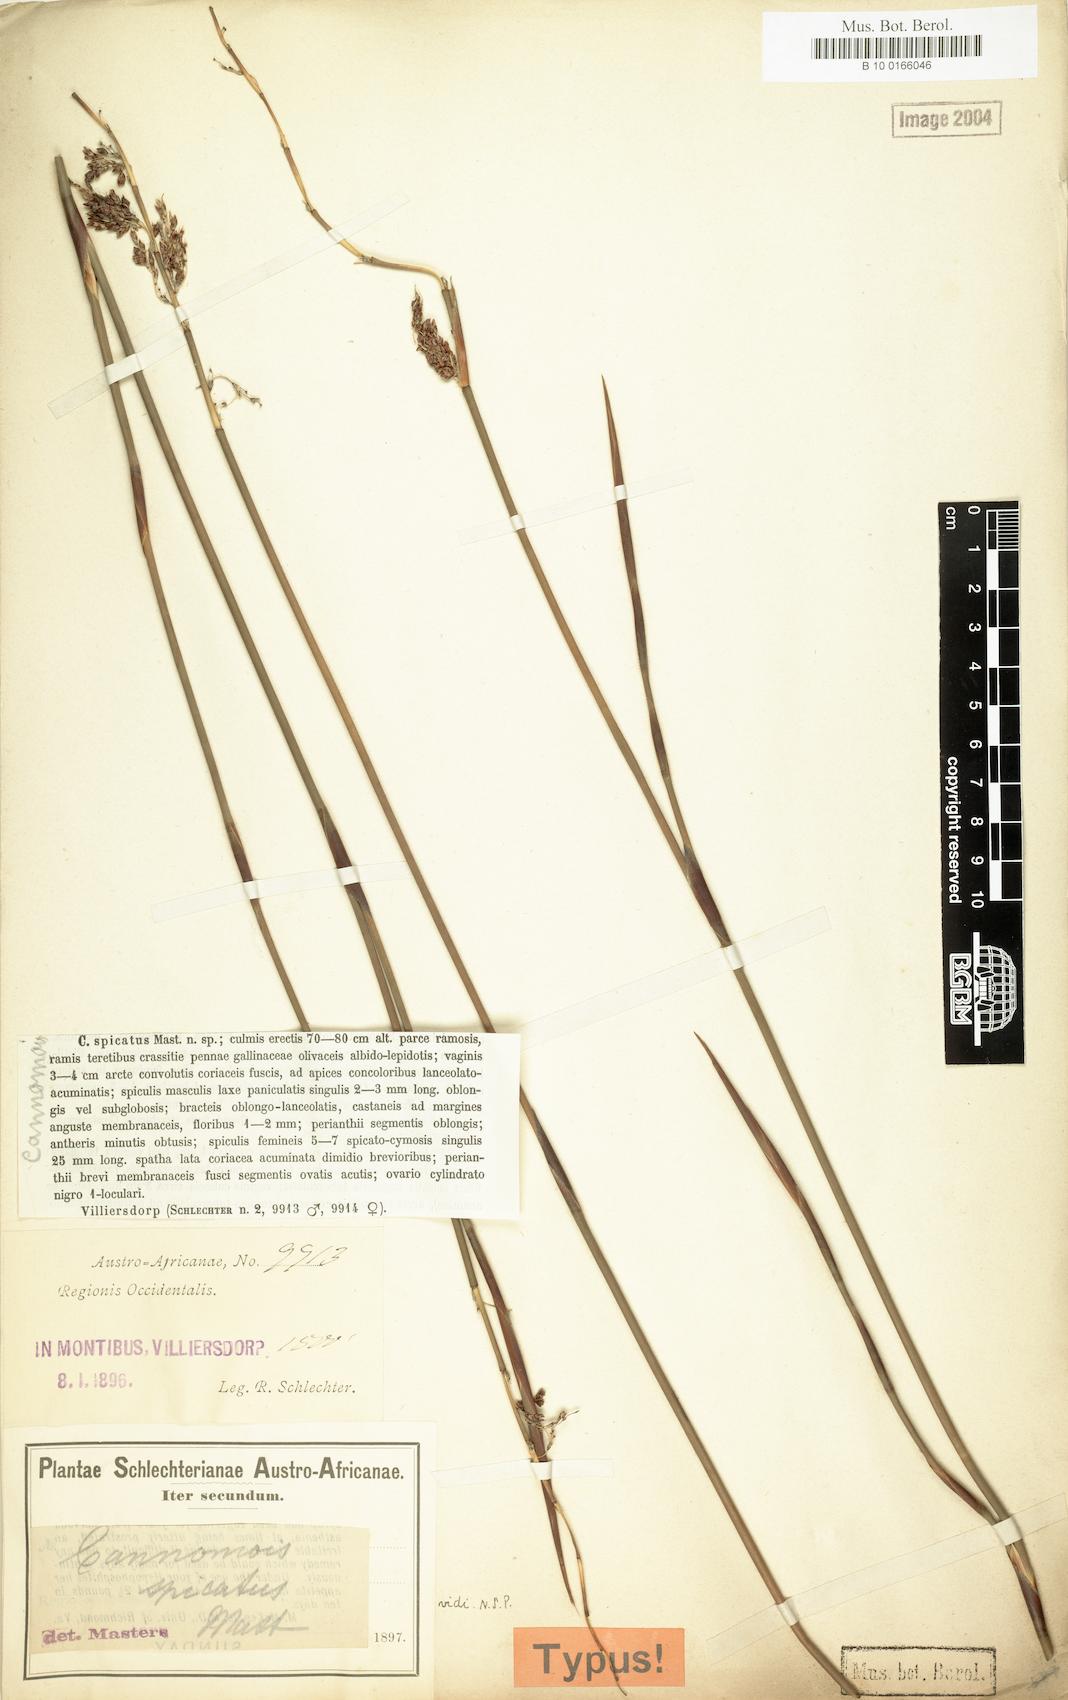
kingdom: Plantae
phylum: Tracheophyta
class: Liliopsida
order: Poales
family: Restionaceae
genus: Cannomois
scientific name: Cannomois parviflora
